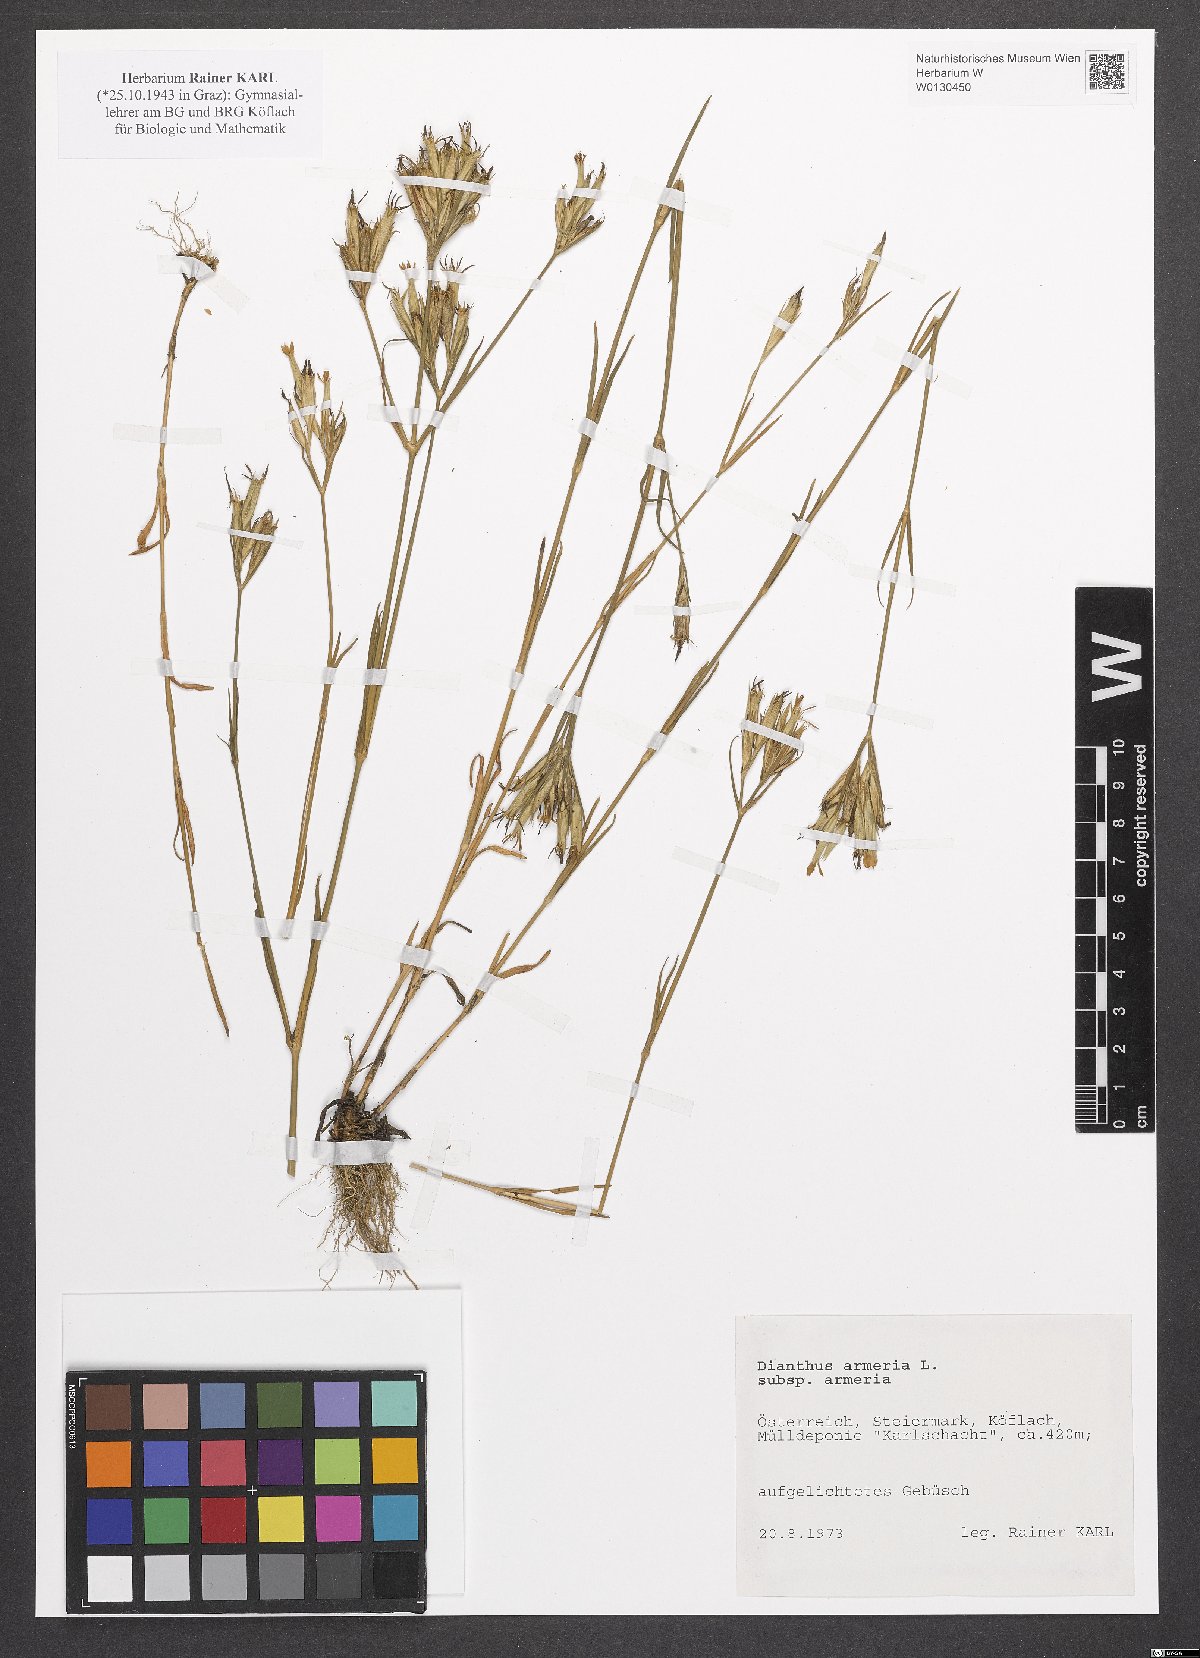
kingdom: Plantae
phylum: Tracheophyta
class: Magnoliopsida
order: Caryophyllales
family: Caryophyllaceae
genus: Dianthus
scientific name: Dianthus armeria
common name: Deptford pink
